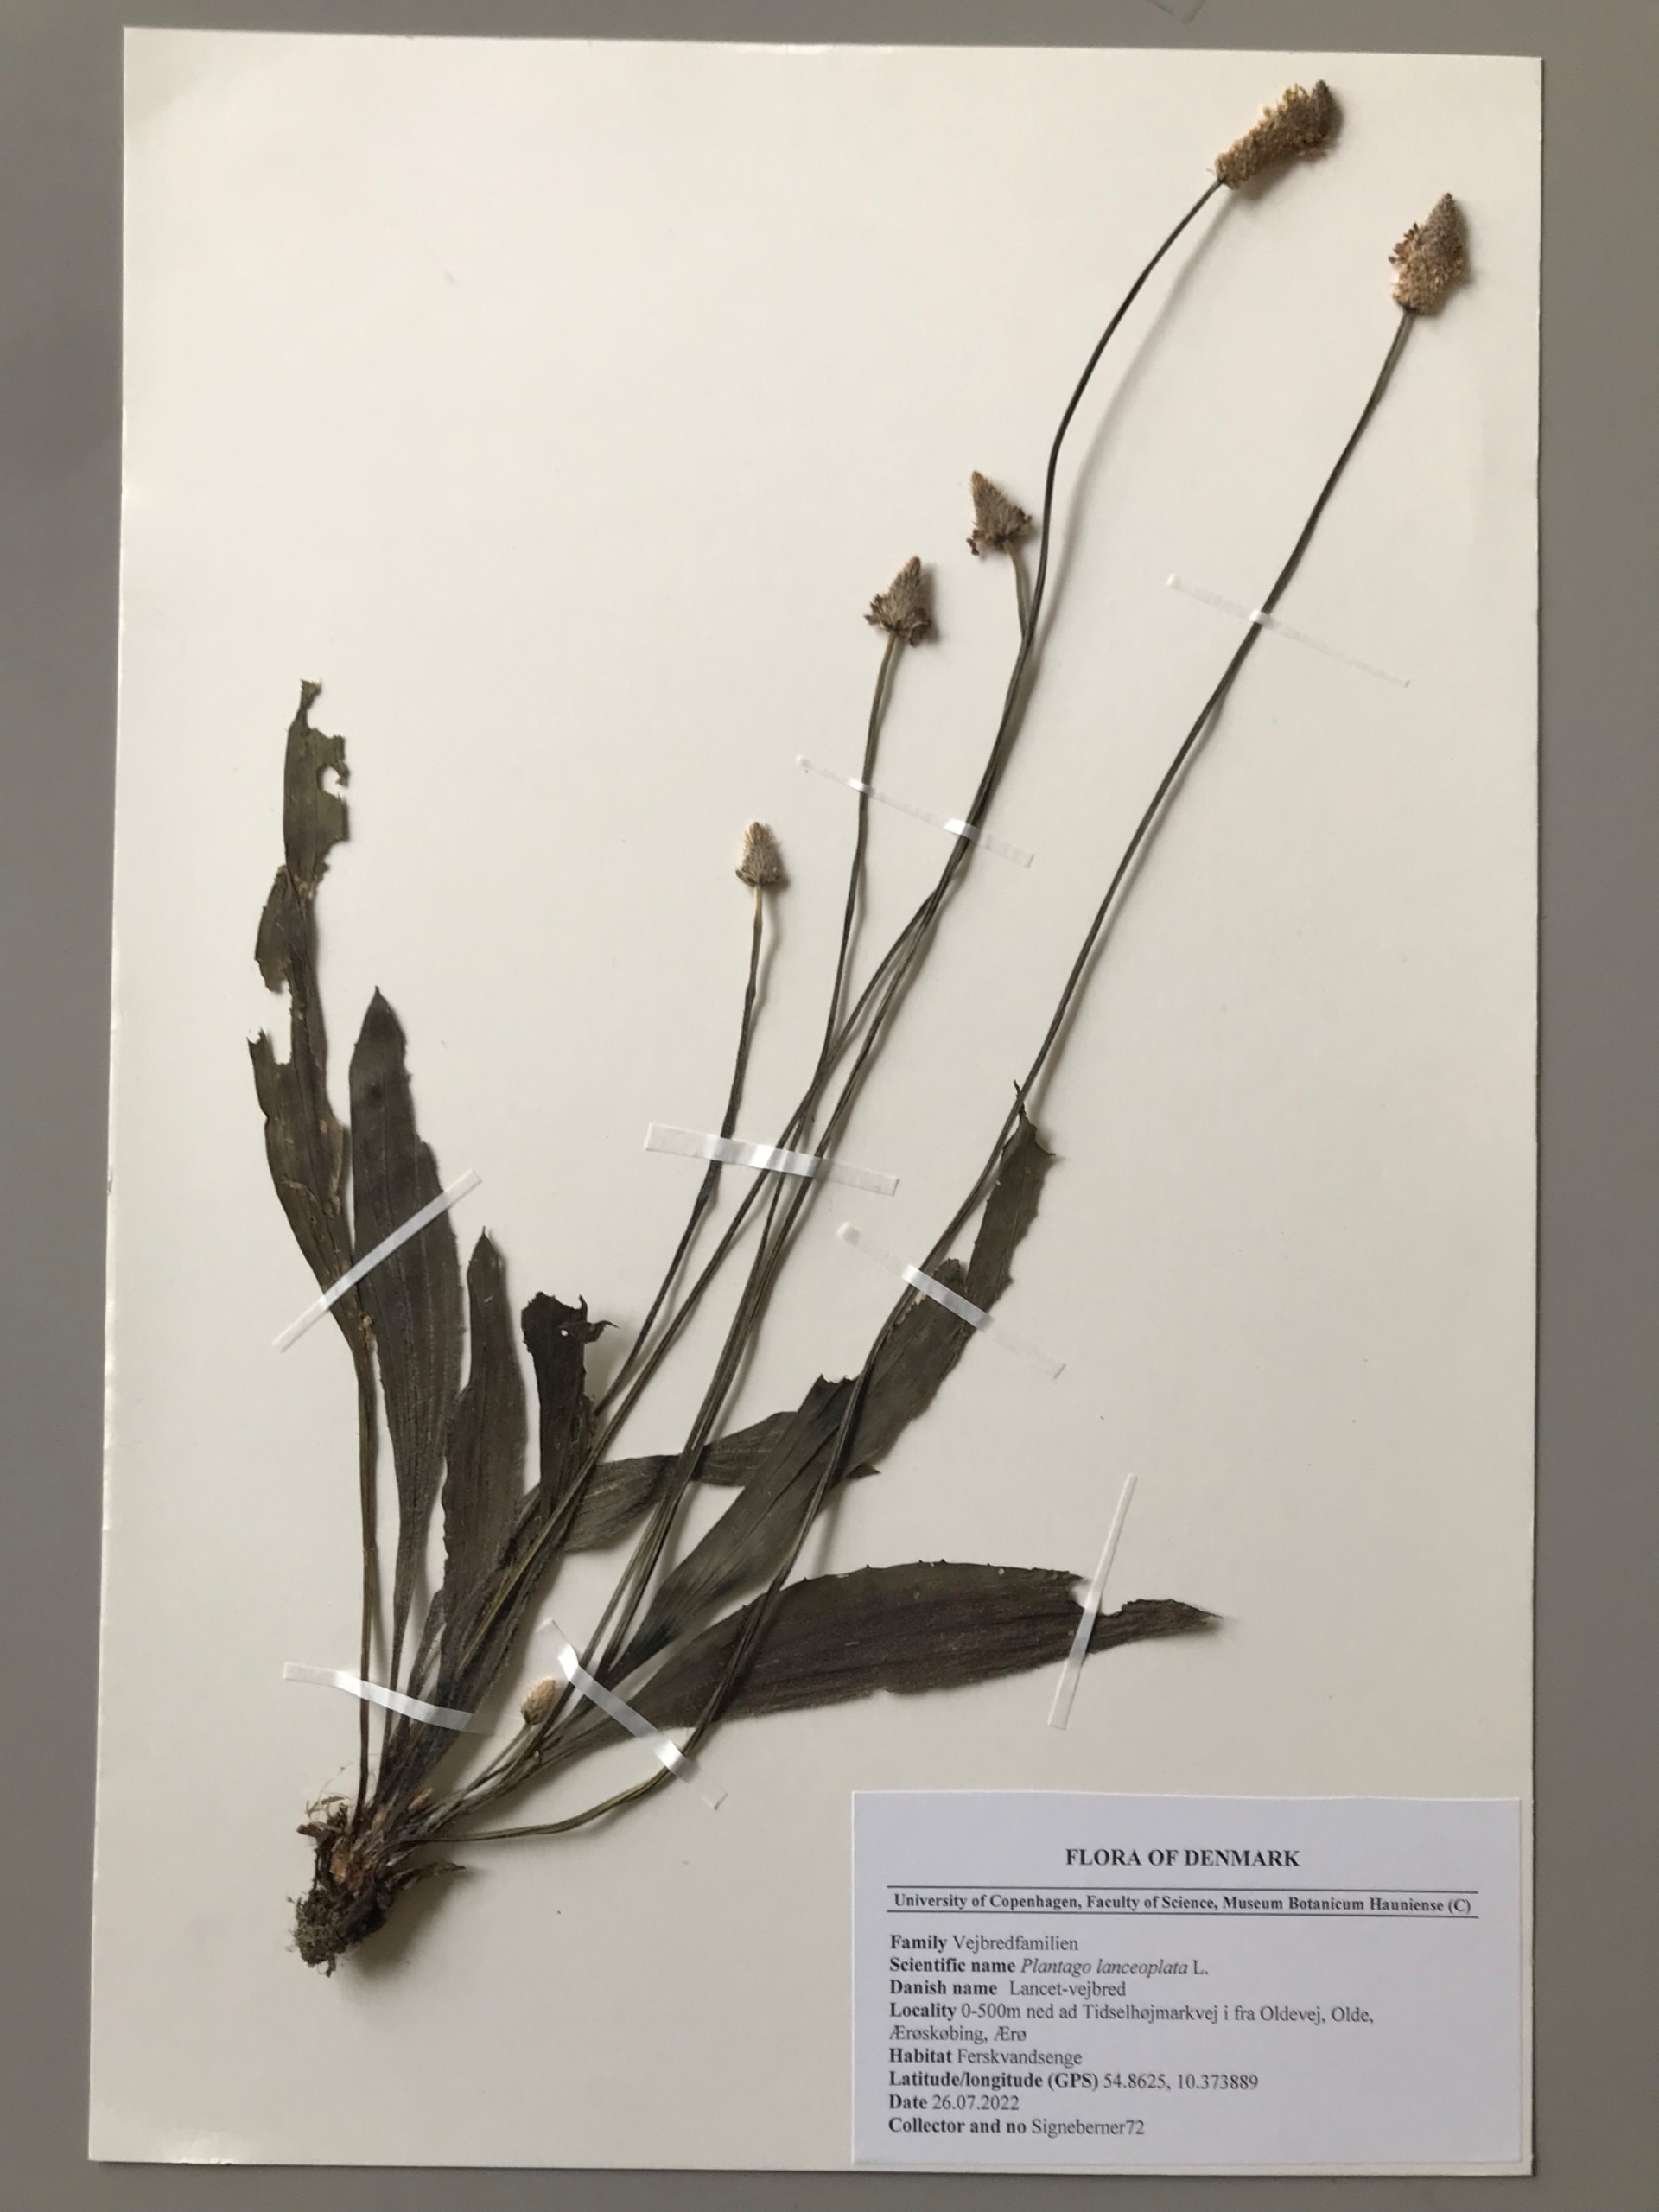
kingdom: Plantae
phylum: Tracheophyta
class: Magnoliopsida
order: Lamiales
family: Plantaginaceae
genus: Plantago
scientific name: Plantago lanceolata
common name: Lancet-vejbred
